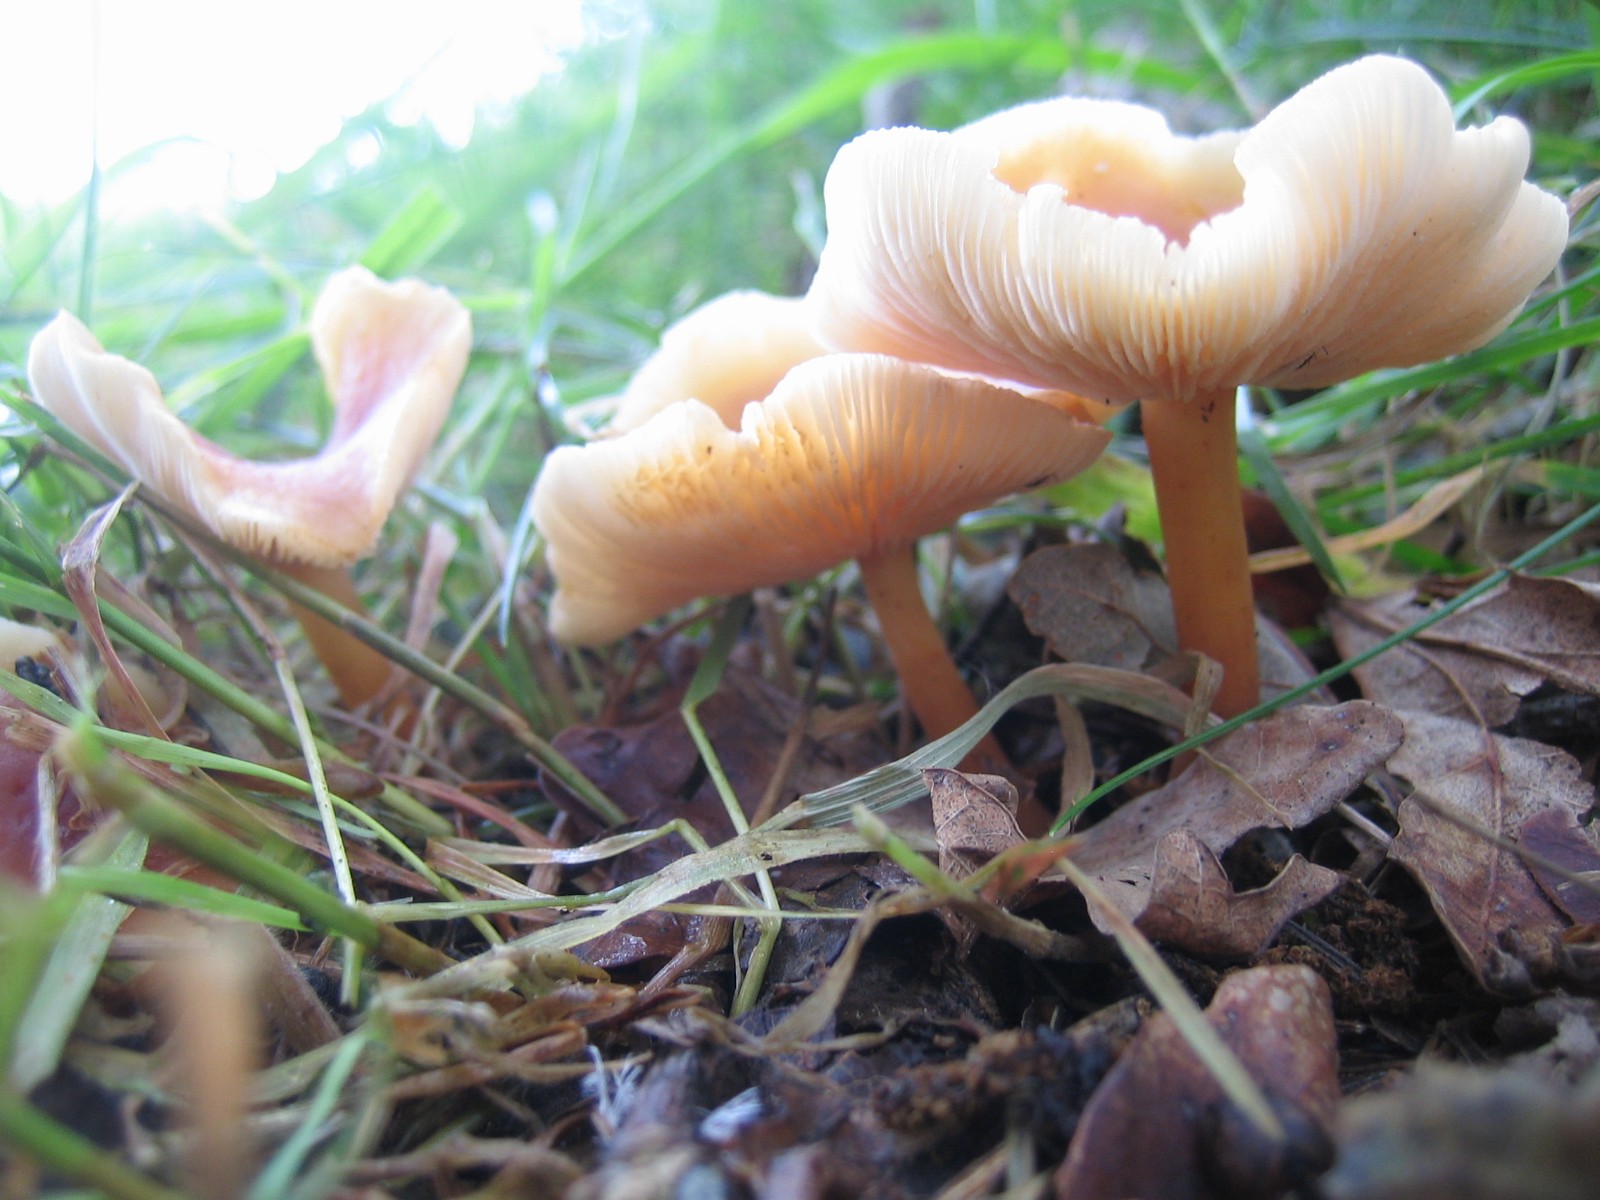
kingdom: Fungi
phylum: Basidiomycota
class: Agaricomycetes
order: Agaricales
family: Omphalotaceae
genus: Gymnopus
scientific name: Gymnopus dryophilus
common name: løv-fladhat
